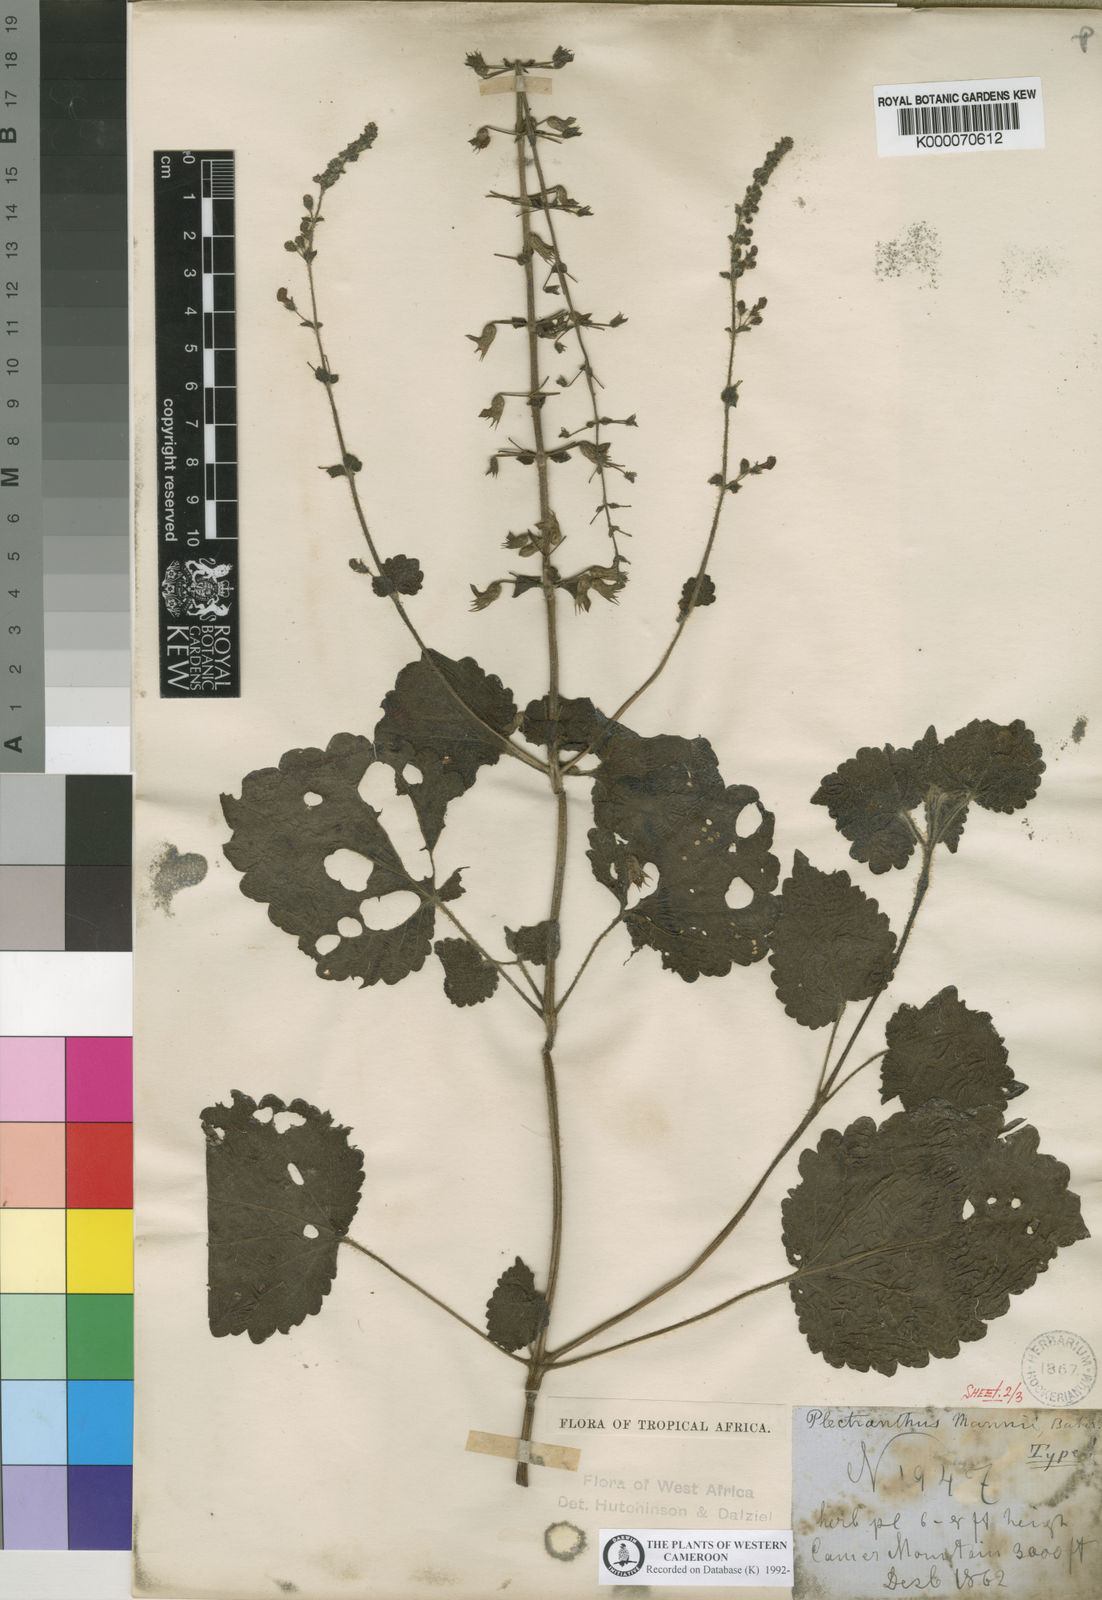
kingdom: Plantae
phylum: Tracheophyta
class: Magnoliopsida
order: Lamiales
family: Lamiaceae
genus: Equilabium
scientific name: Equilabium kamerunense
